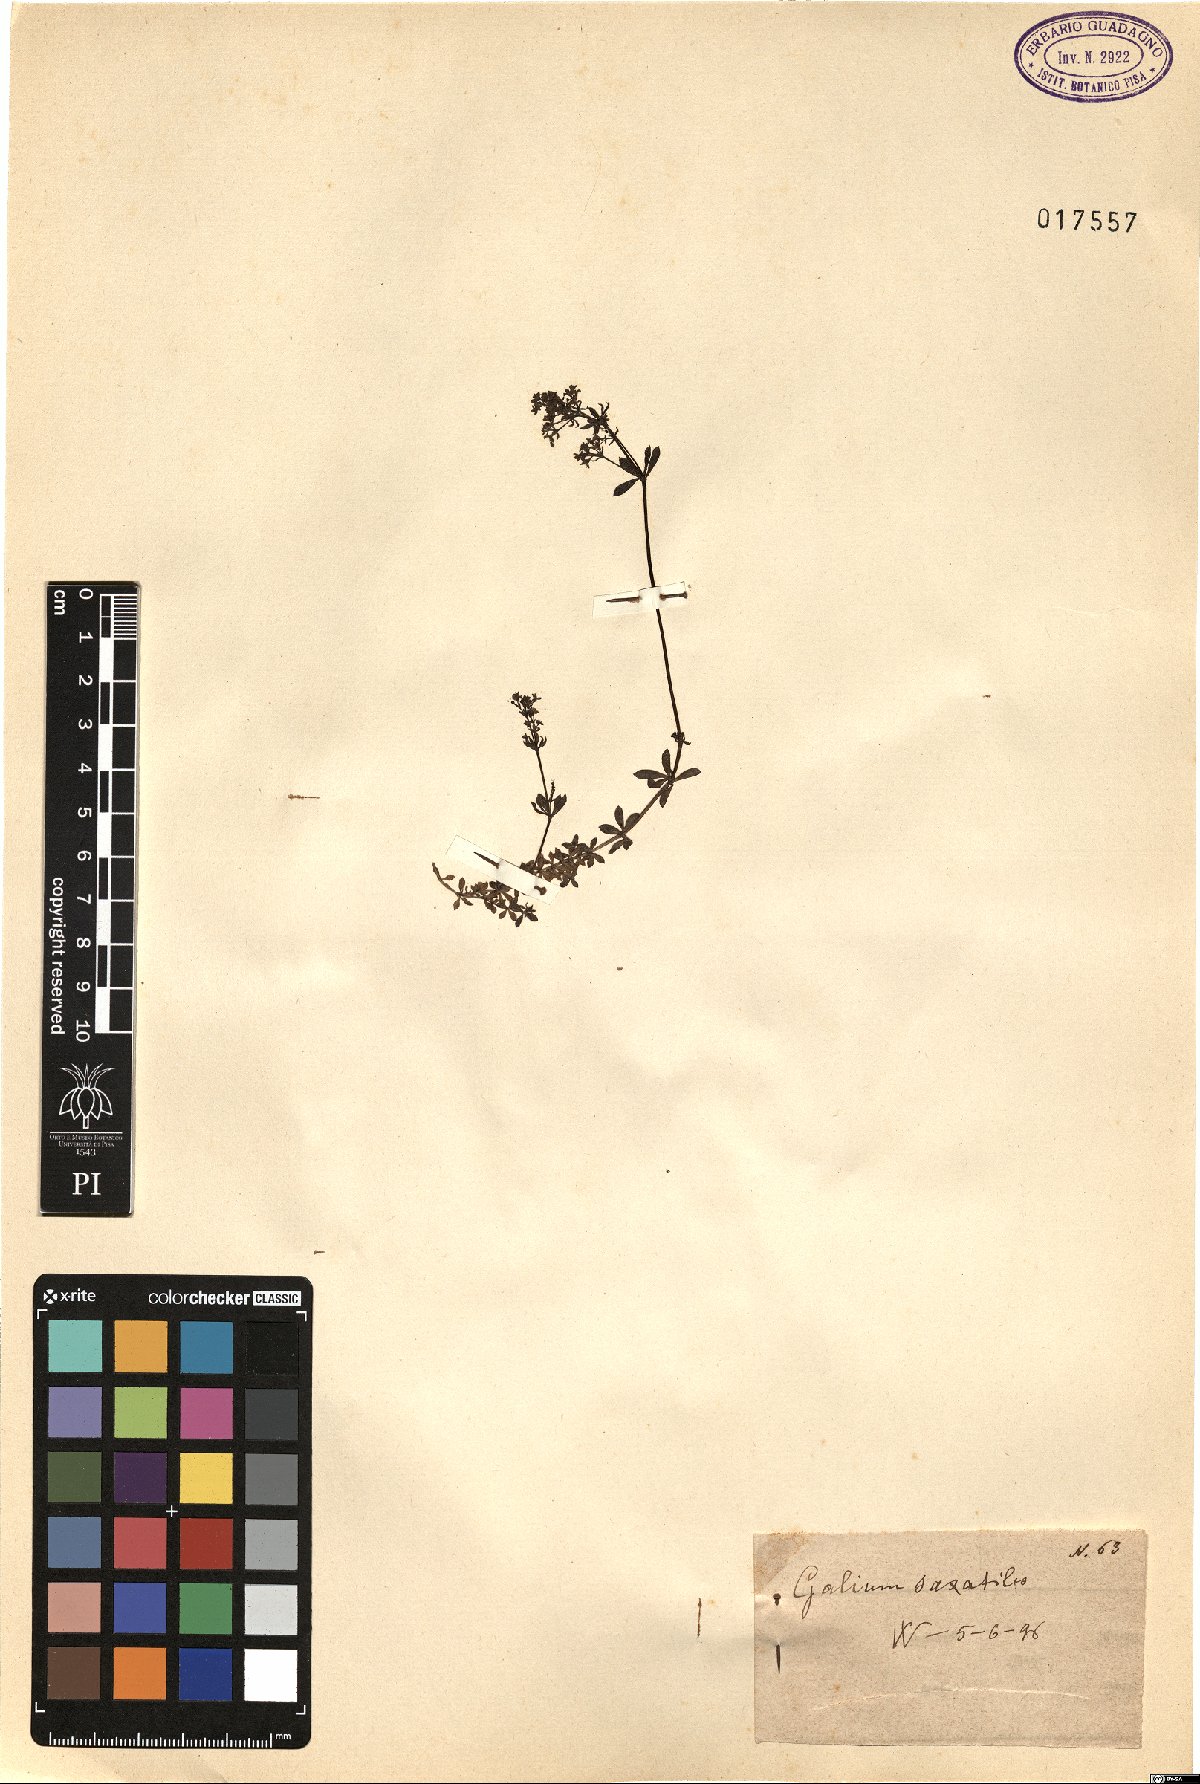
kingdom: Plantae
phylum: Tracheophyta
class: Magnoliopsida
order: Gentianales
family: Rubiaceae
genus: Galium
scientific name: Galium saxatile
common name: Heath bedstraw
